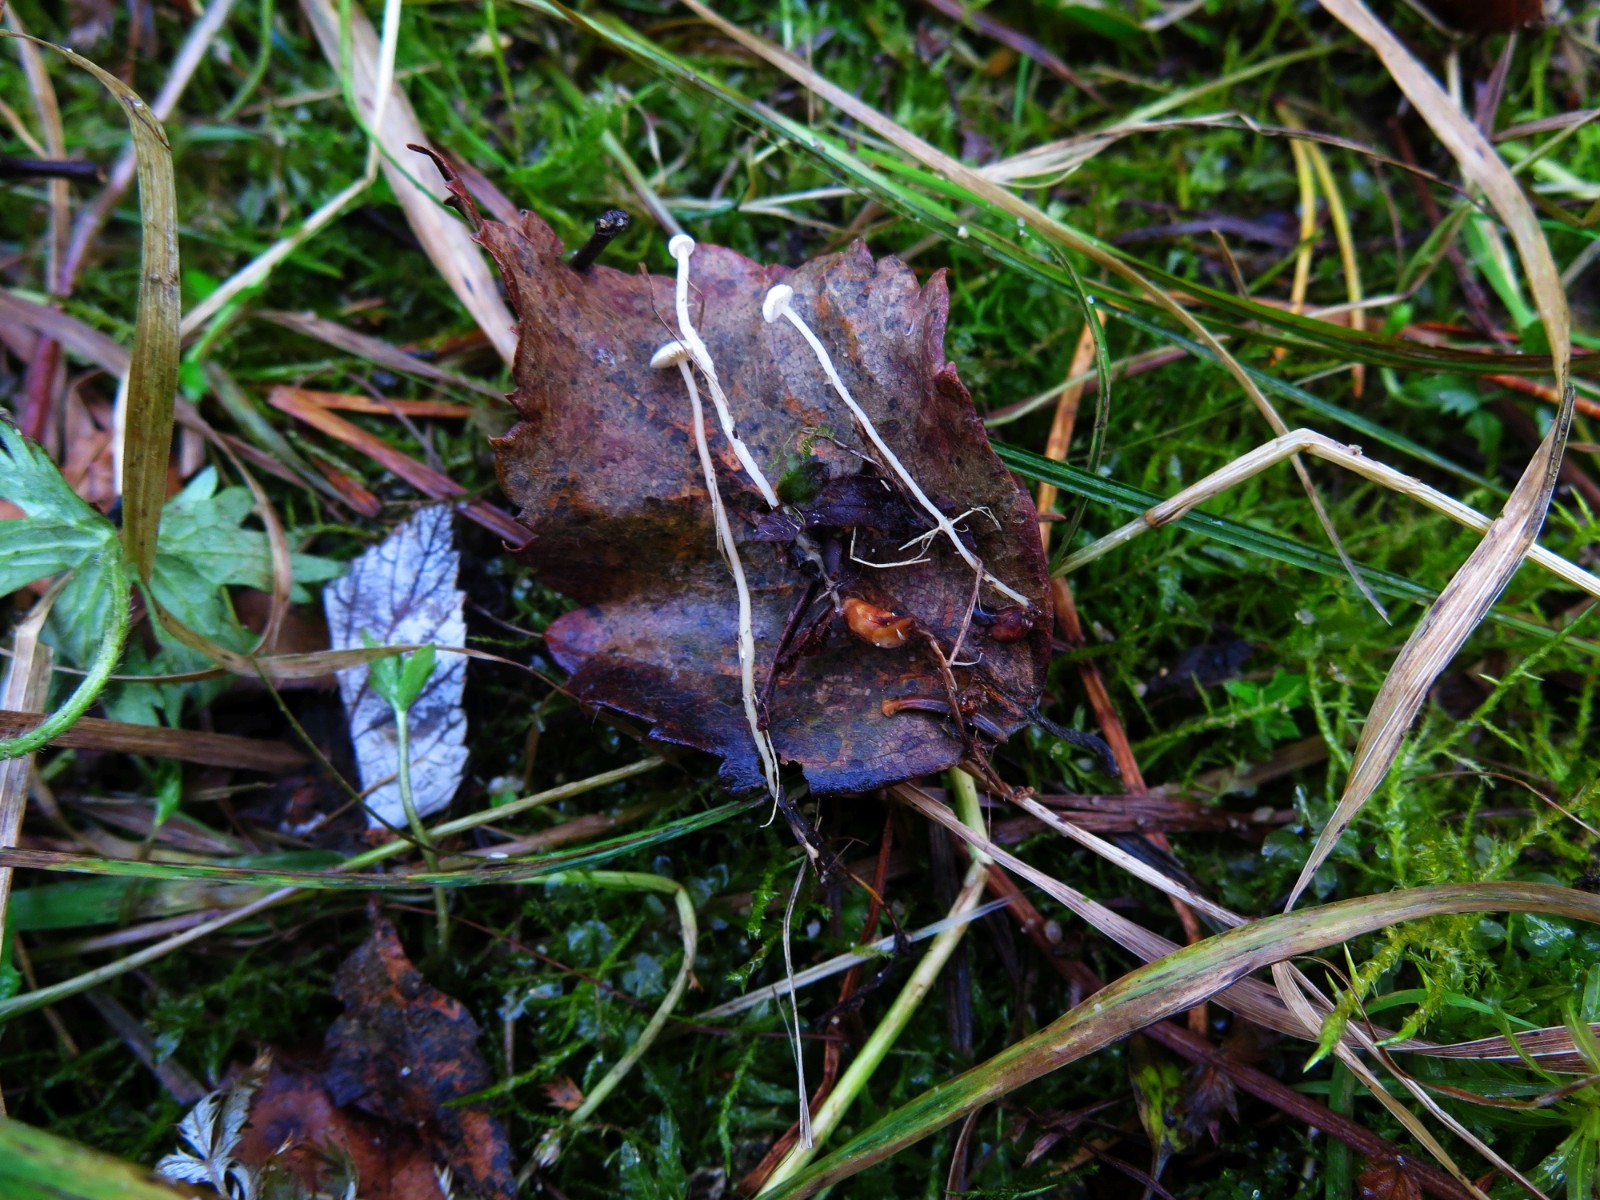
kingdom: Fungi
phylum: Basidiomycota
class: Agaricomycetes
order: Agaricales
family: Tricholomataceae
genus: Collybia
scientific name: Collybia tuberosa
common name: spidsknoldet lighat
